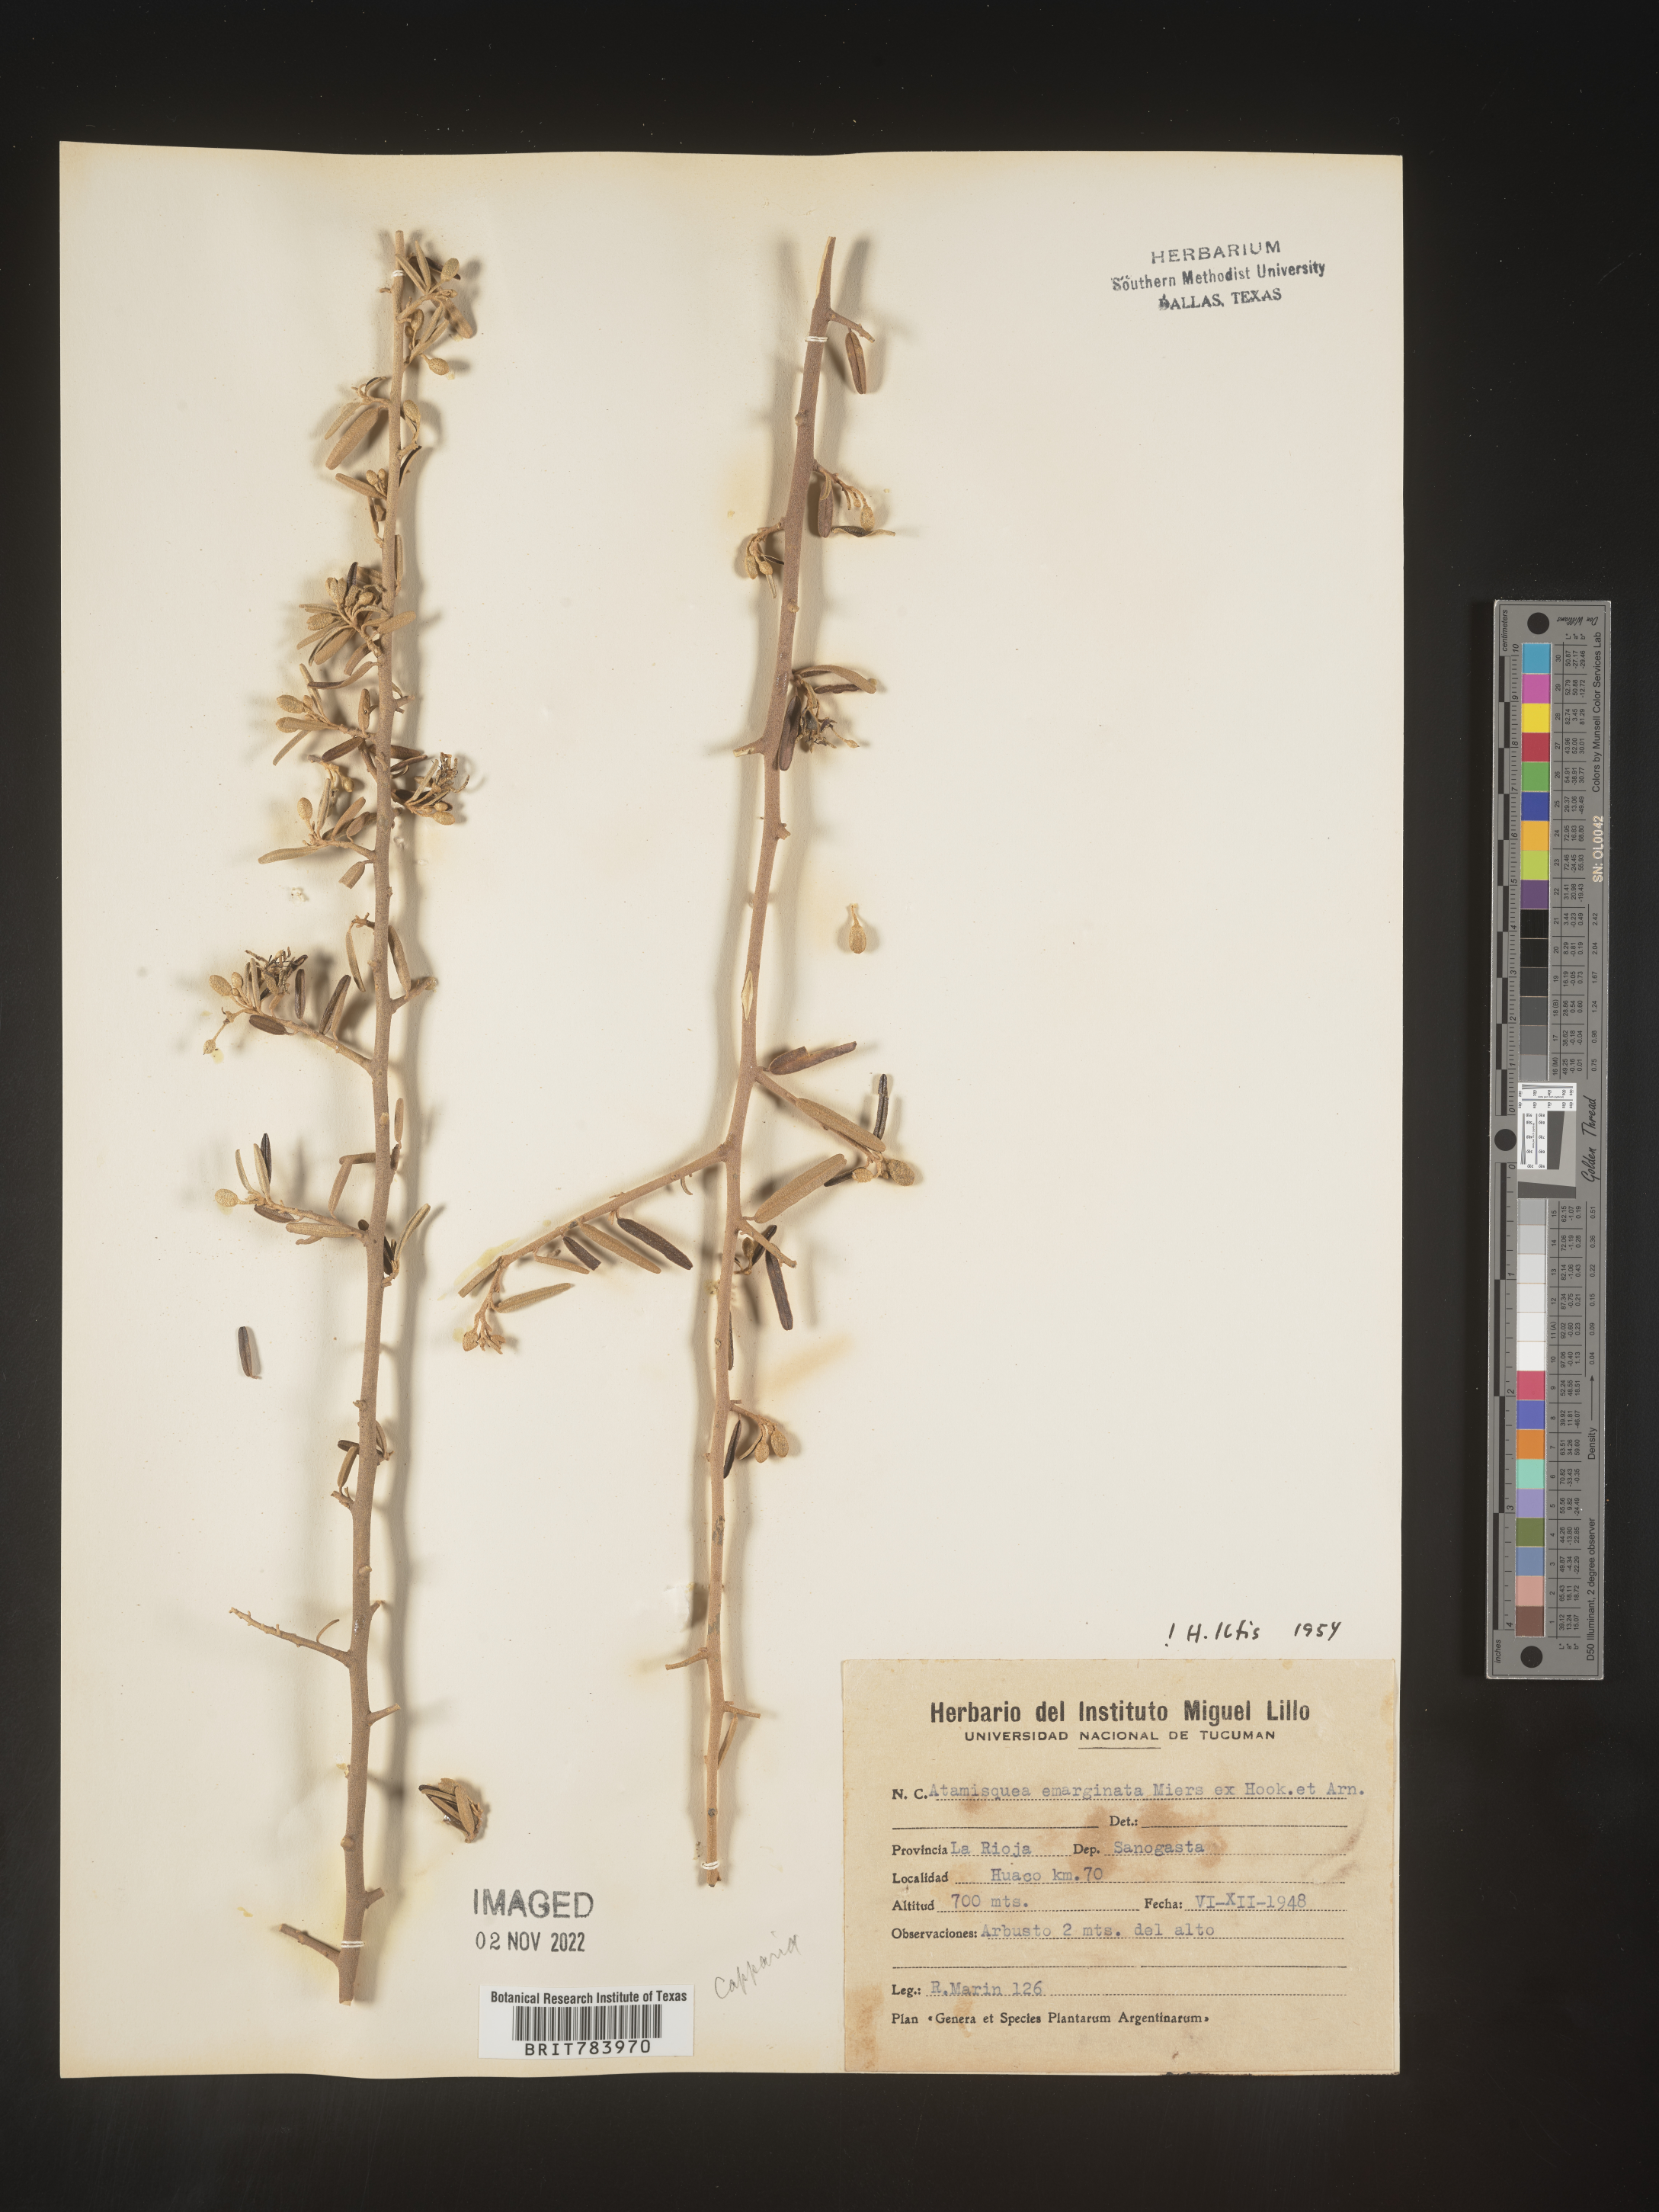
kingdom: Plantae
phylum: Tracheophyta
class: Magnoliopsida
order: Brassicales
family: Capparaceae
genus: Atamisquea
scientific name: Atamisquea
